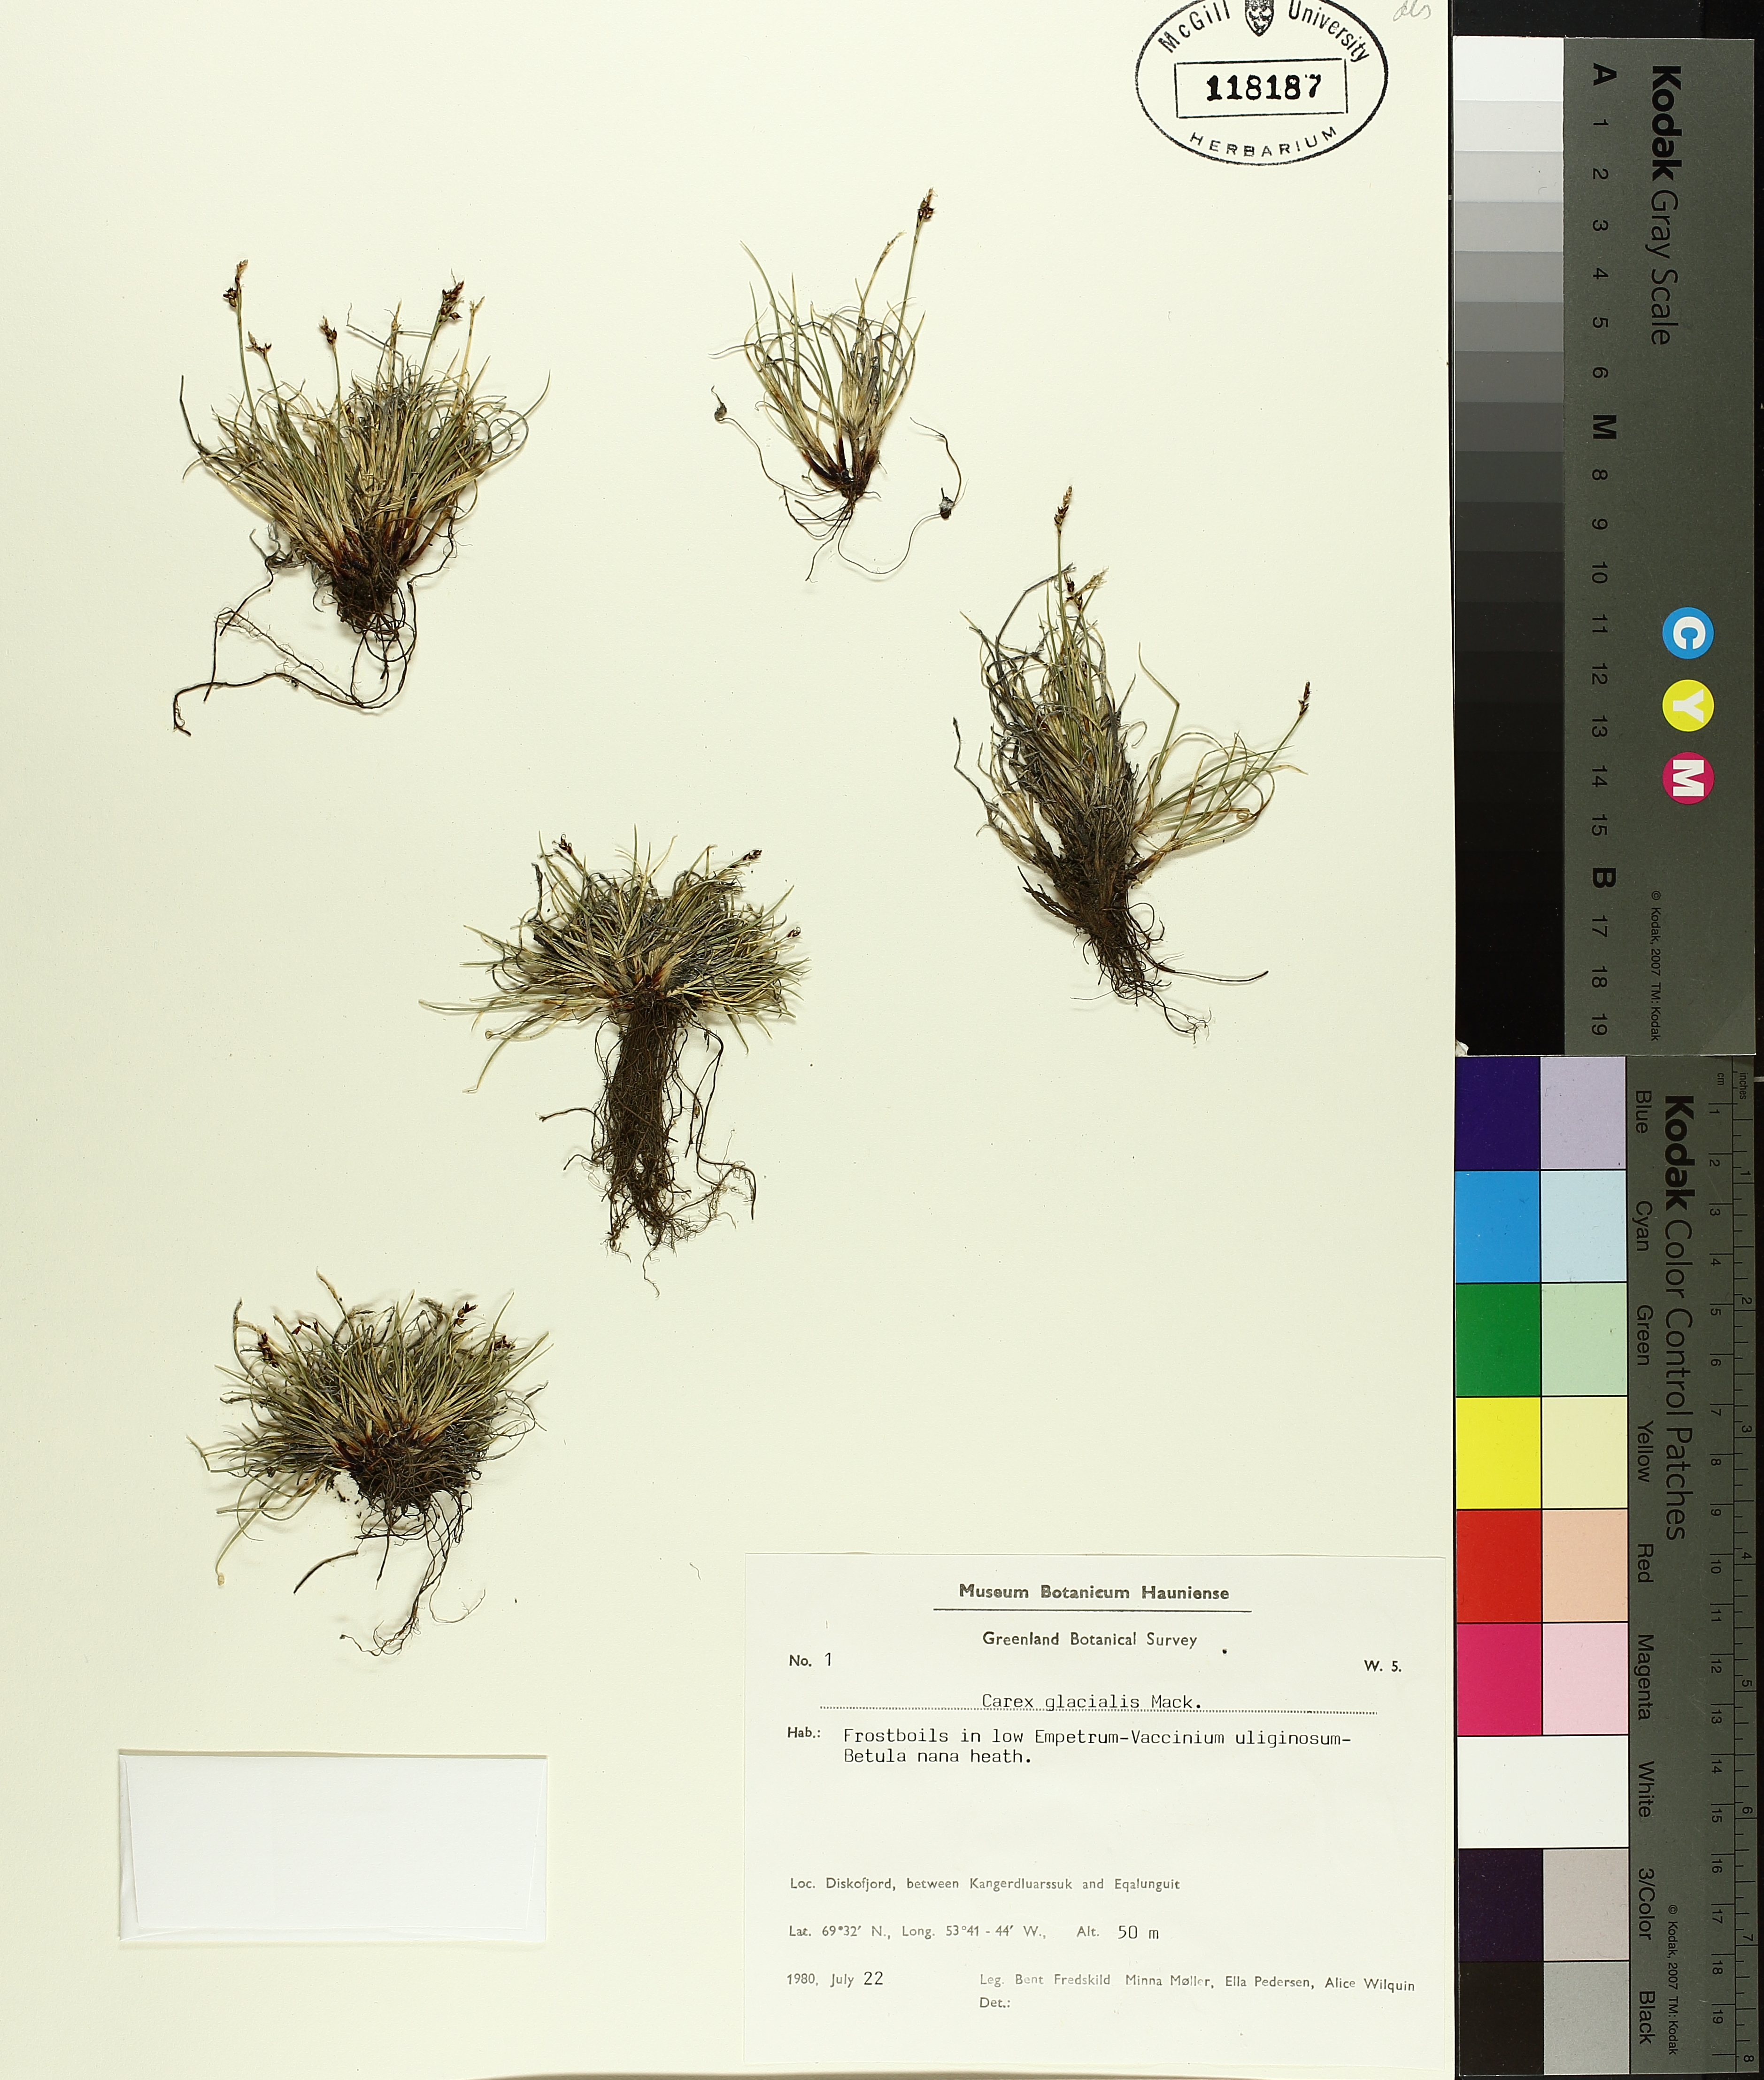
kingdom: Plantae
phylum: Tracheophyta
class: Liliopsida
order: Poales
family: Cyperaceae
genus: Carex
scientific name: Carex glacialis
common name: Newfoundland sedge
